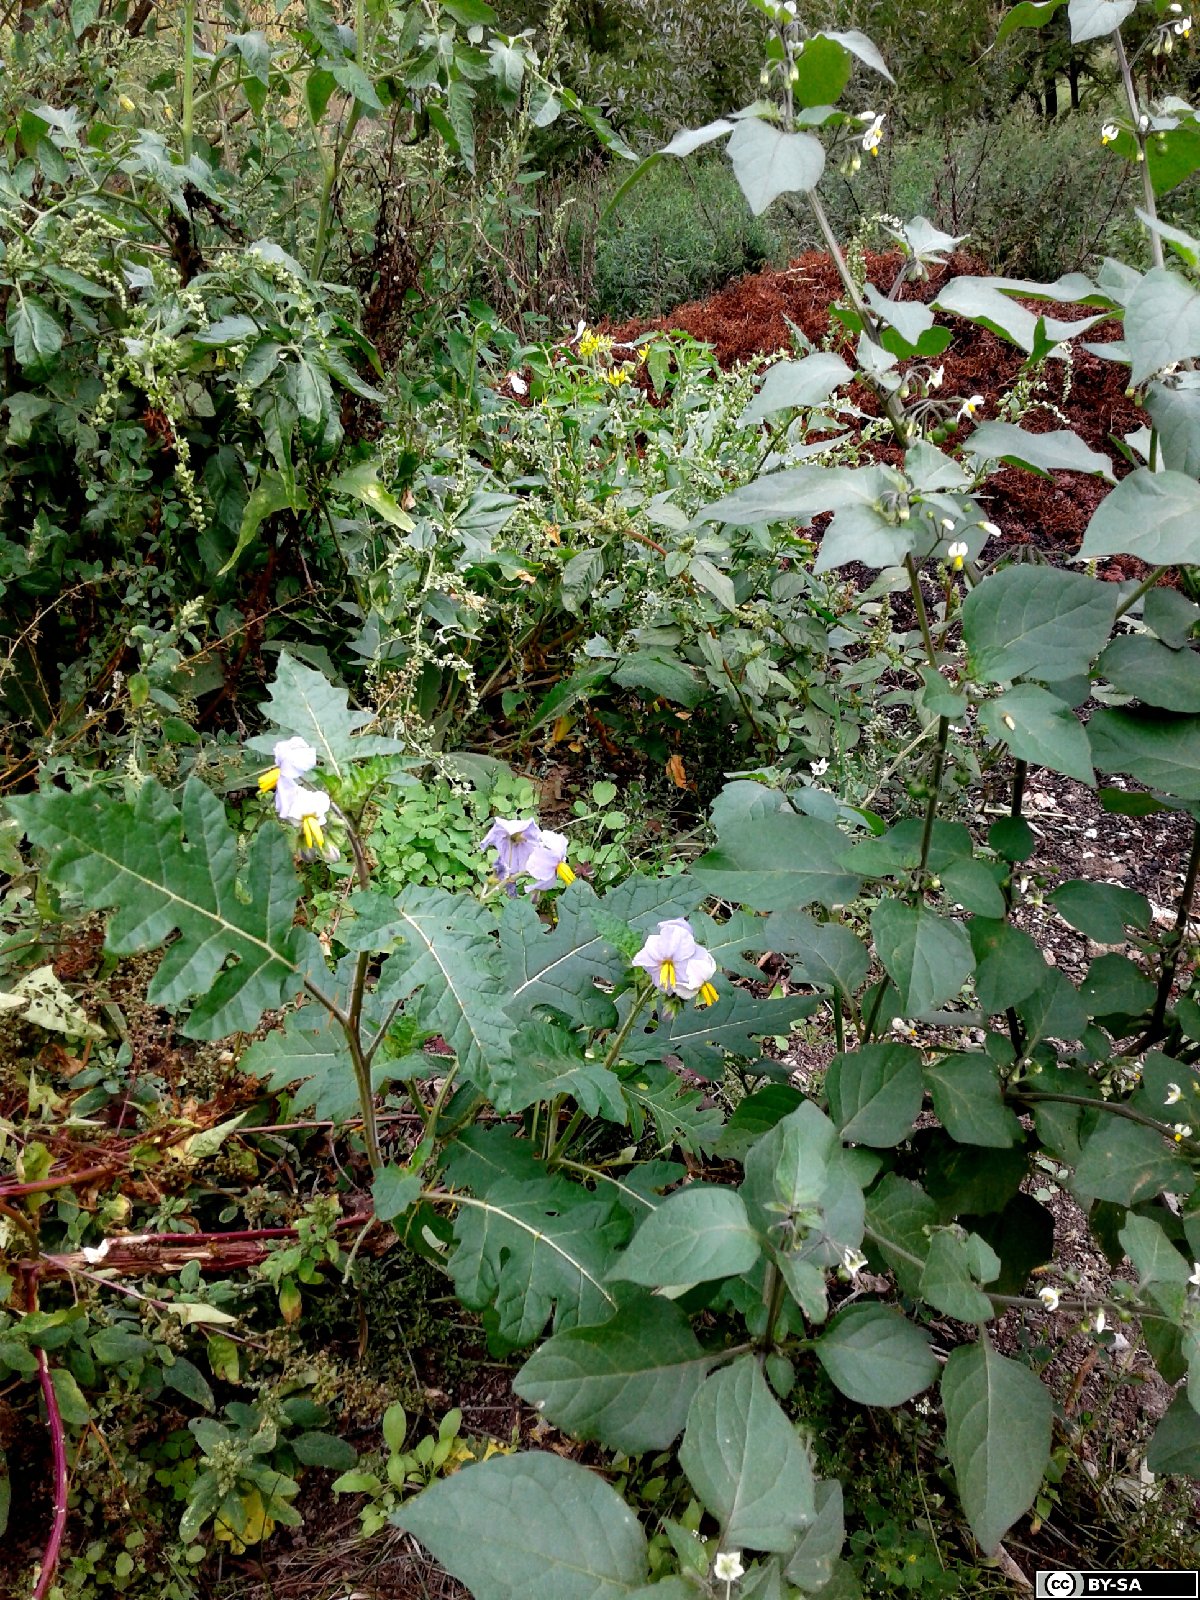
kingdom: Plantae
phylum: Tracheophyta
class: Magnoliopsida
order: Solanales
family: Solanaceae
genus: Solanum
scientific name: Solanum sisymbriifolium
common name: Red buffalo-bur
